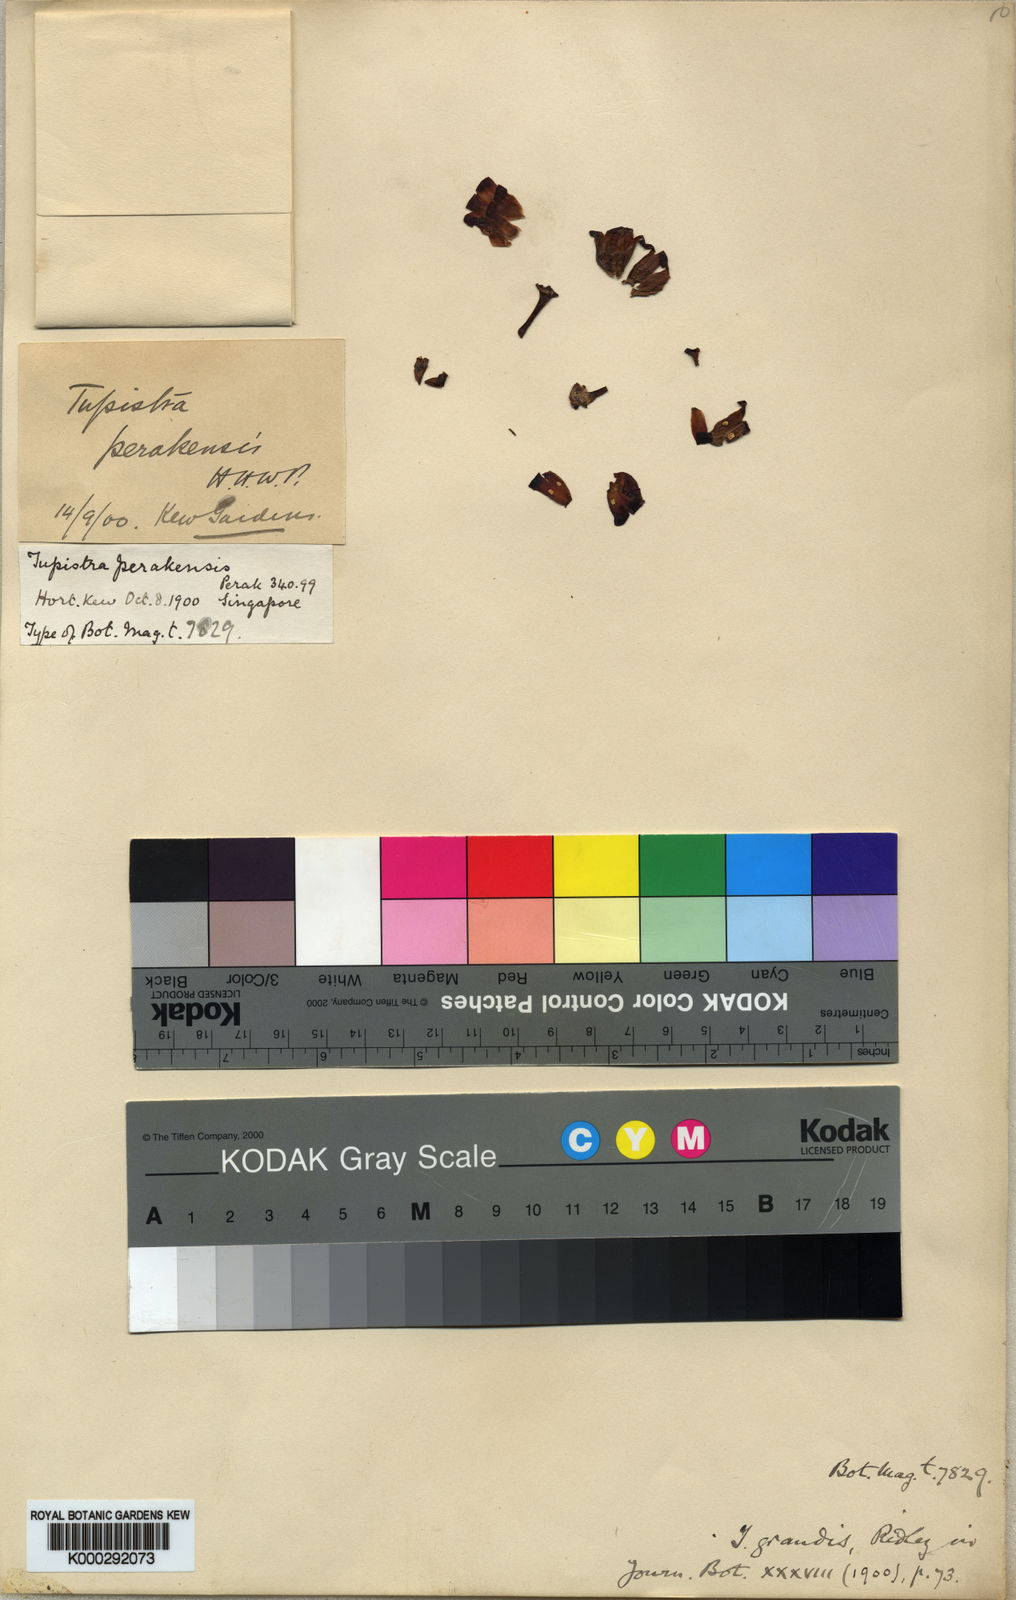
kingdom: Plantae
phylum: Tracheophyta
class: Liliopsida
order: Asparagales
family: Asparagaceae
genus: Tupistra
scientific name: Tupistra grandis
